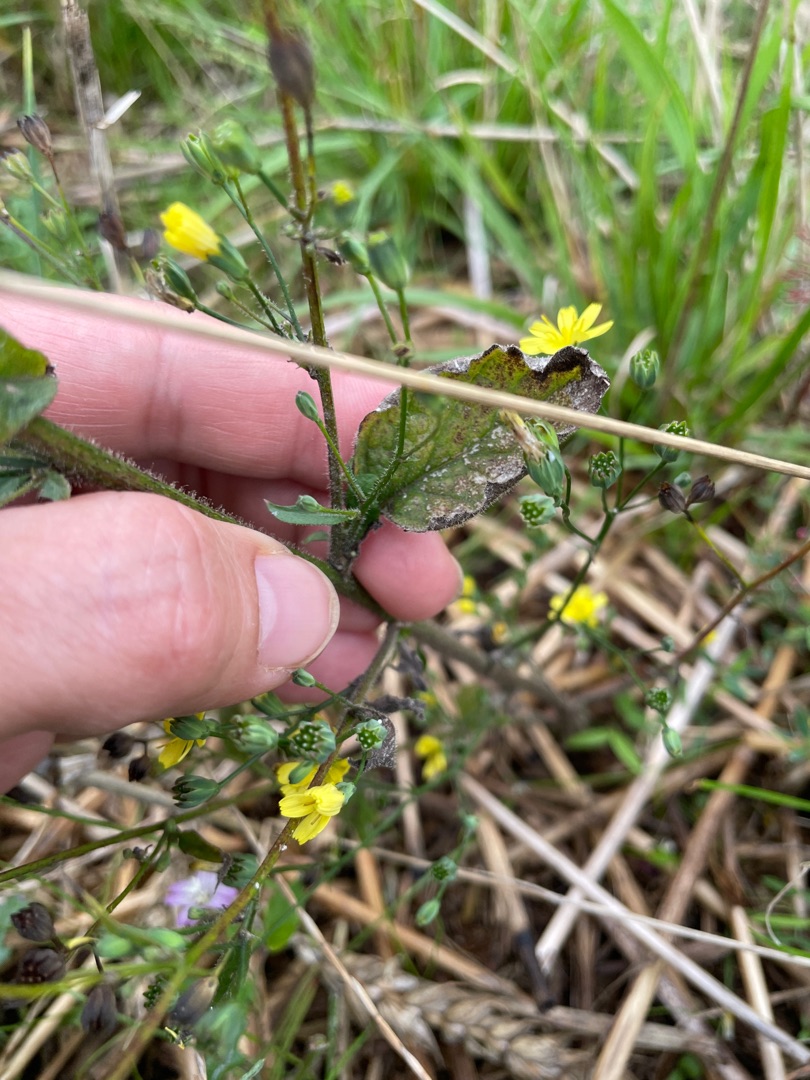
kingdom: Plantae
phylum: Tracheophyta
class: Magnoliopsida
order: Asterales
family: Asteraceae
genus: Lapsana
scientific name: Lapsana communis
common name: Haremad
